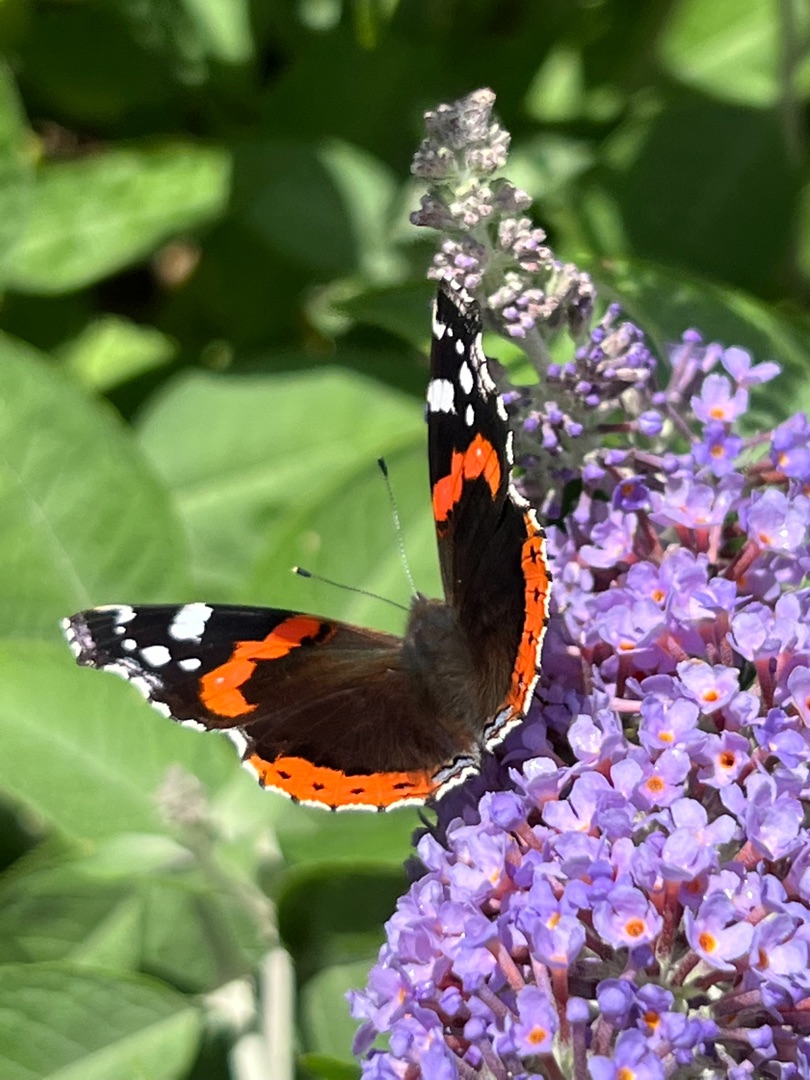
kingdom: Animalia
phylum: Arthropoda
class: Insecta
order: Lepidoptera
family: Nymphalidae
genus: Vanessa
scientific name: Vanessa atalanta
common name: Admiral
